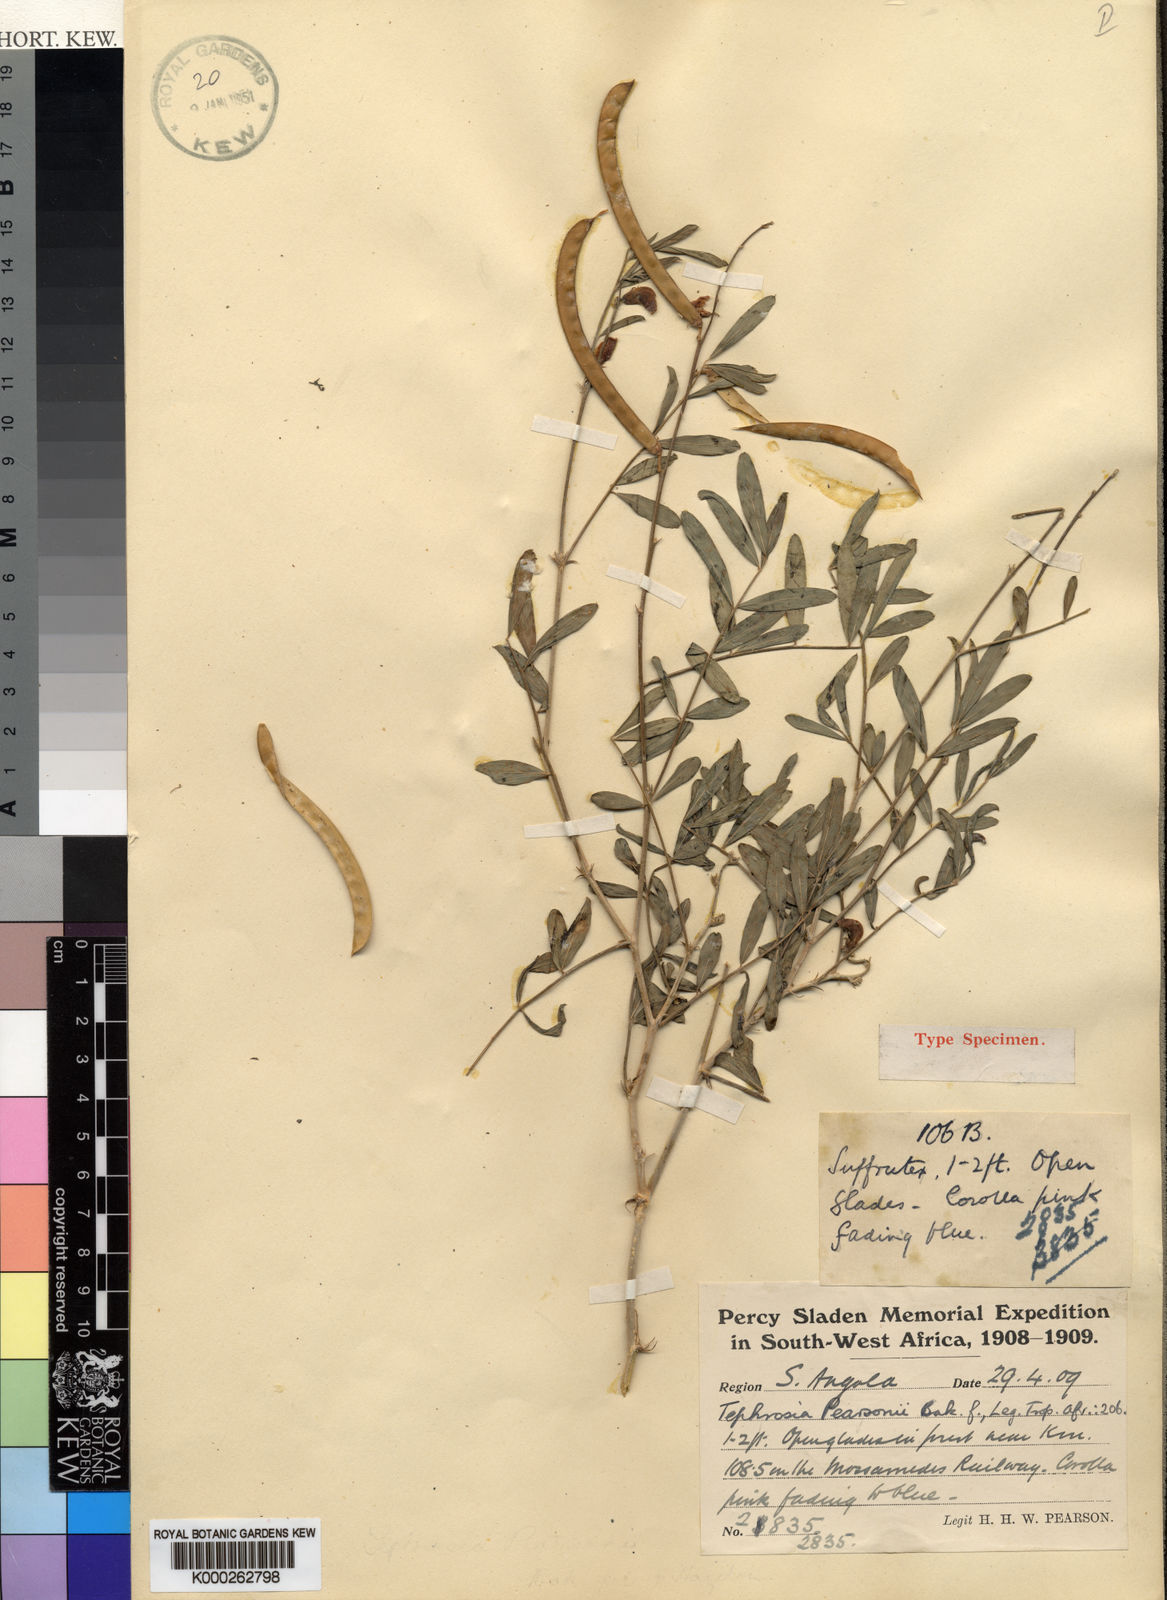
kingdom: Plantae
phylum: Tracheophyta
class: Magnoliopsida
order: Fabales
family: Fabaceae
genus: Tephrosia
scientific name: Tephrosia pearsonii
